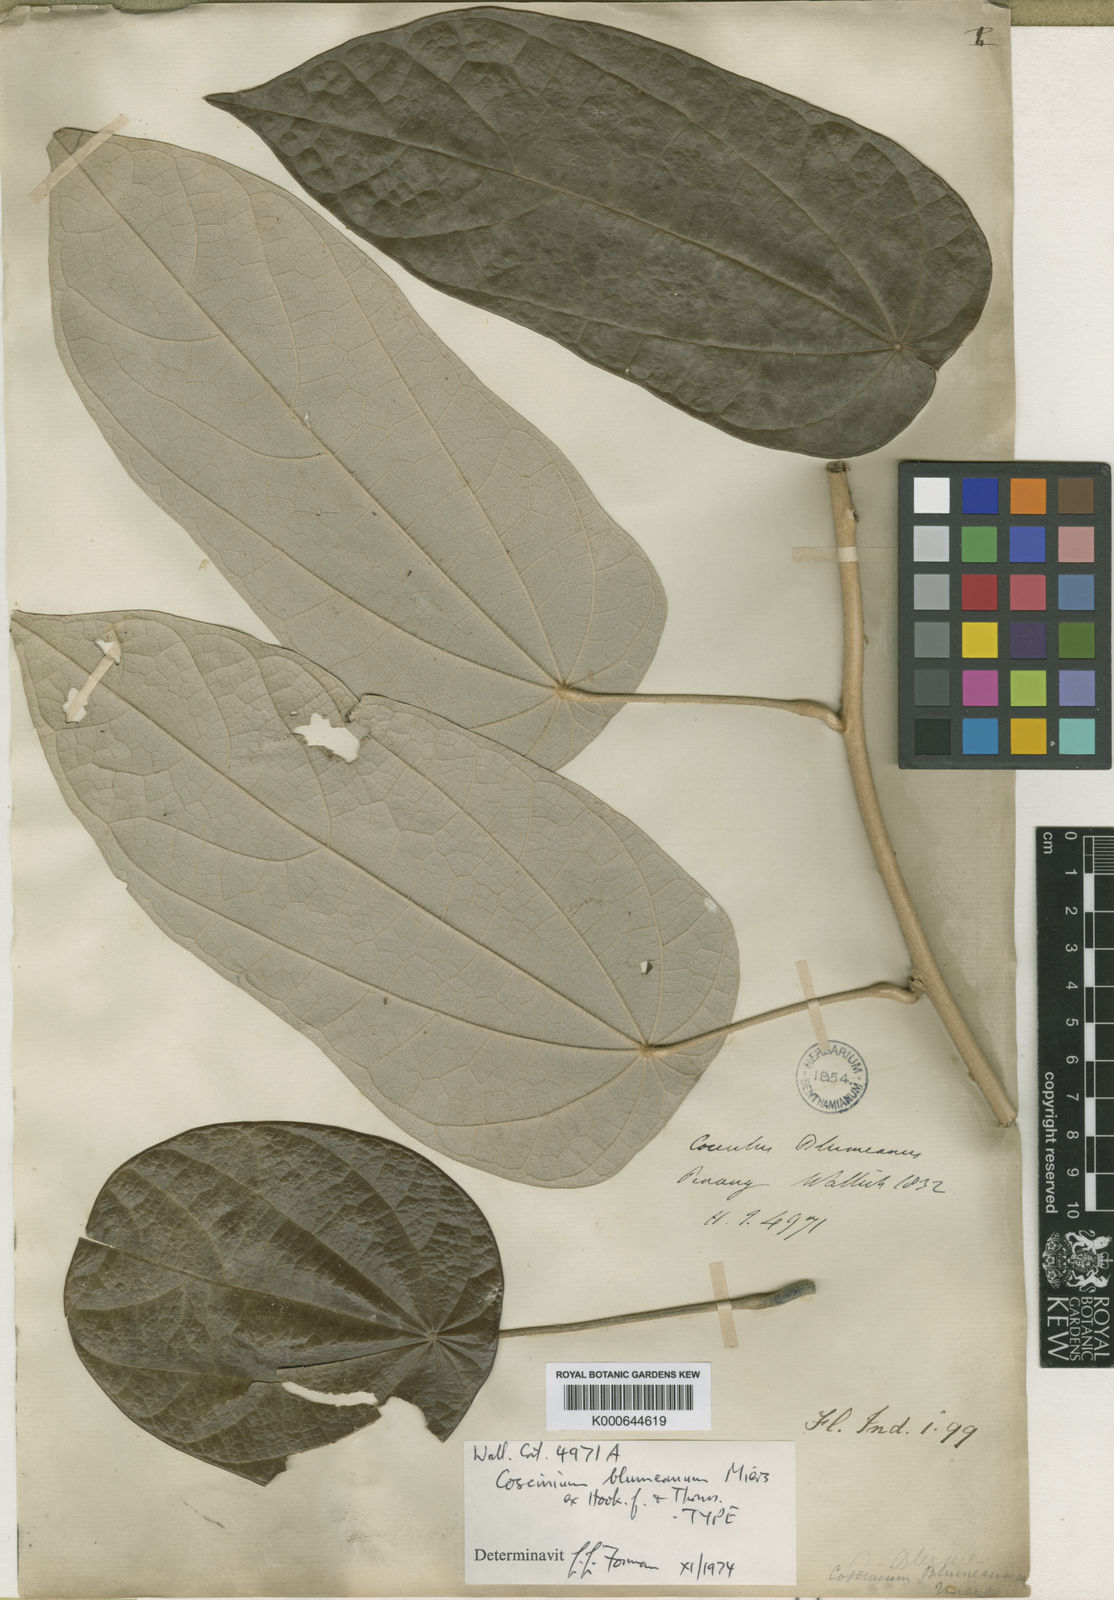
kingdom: Plantae
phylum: Tracheophyta
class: Magnoliopsida
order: Ranunculales
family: Menispermaceae
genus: Coscinium
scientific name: Coscinium blumeanum
